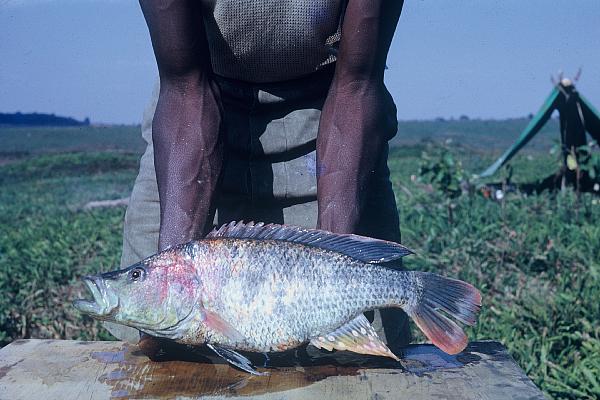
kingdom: Animalia
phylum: Chordata
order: Perciformes
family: Cichlidae
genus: Serranochromis
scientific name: Serranochromis macrocephalus
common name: Purpleface largemouth
